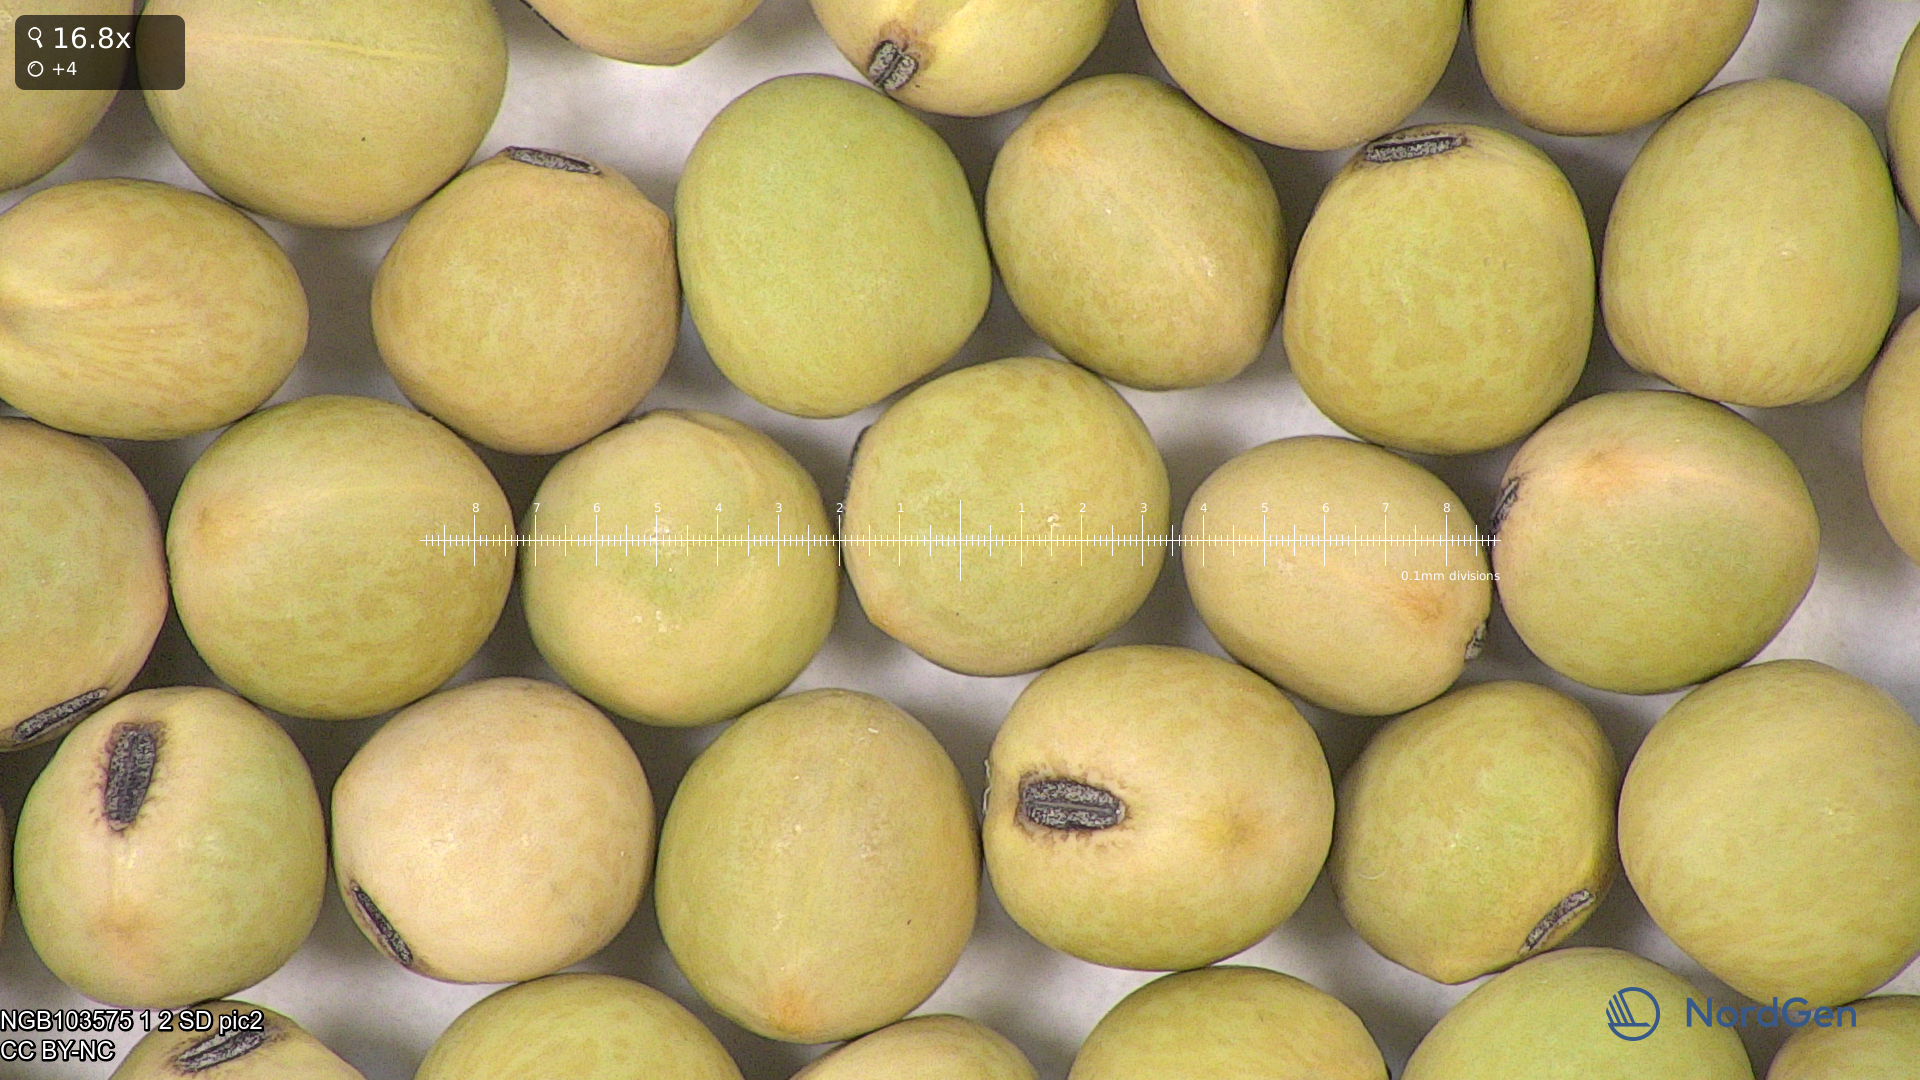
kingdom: Plantae
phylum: Tracheophyta
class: Magnoliopsida
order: Fabales
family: Fabaceae
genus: Lathyrus
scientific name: Lathyrus oleraceus
